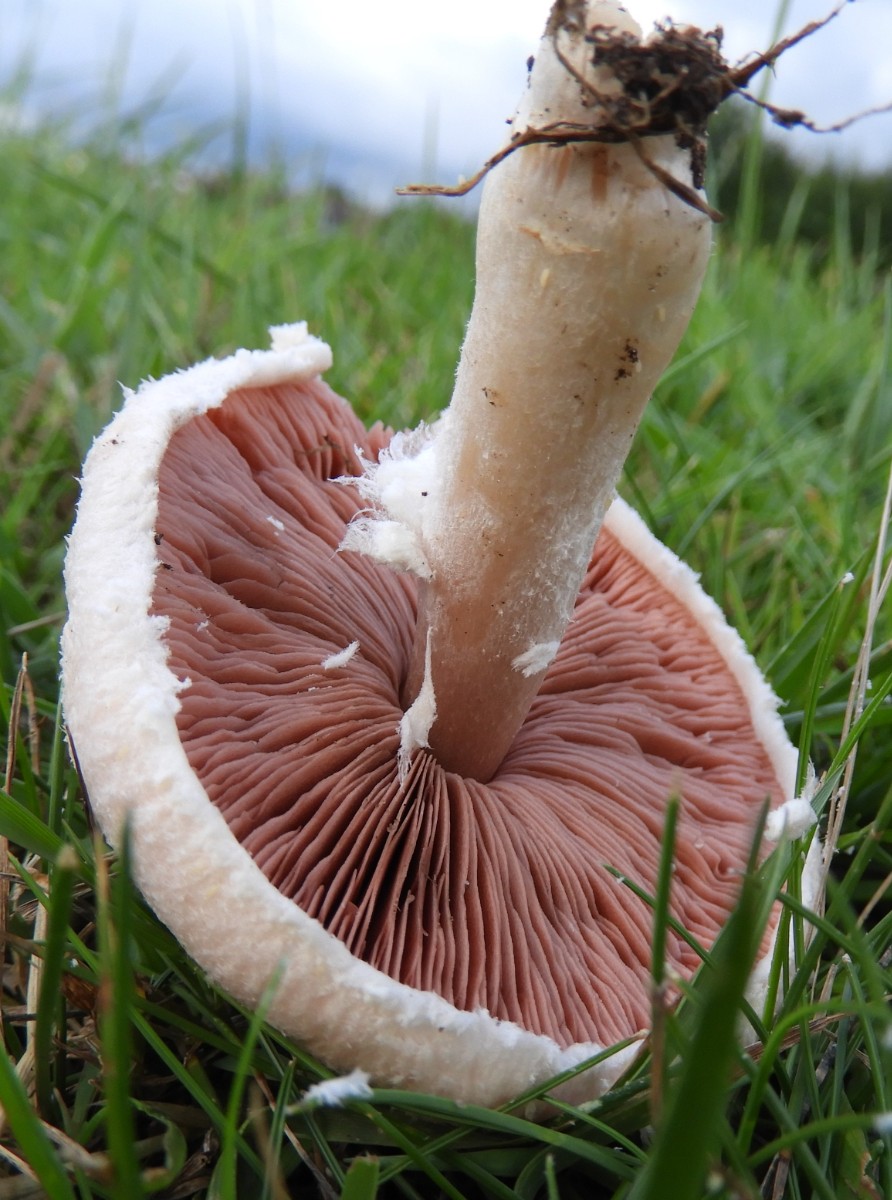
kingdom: Fungi
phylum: Basidiomycota
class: Agaricomycetes
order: Agaricales
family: Agaricaceae
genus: Agaricus
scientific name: Agaricus campestris
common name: mark-champignon
